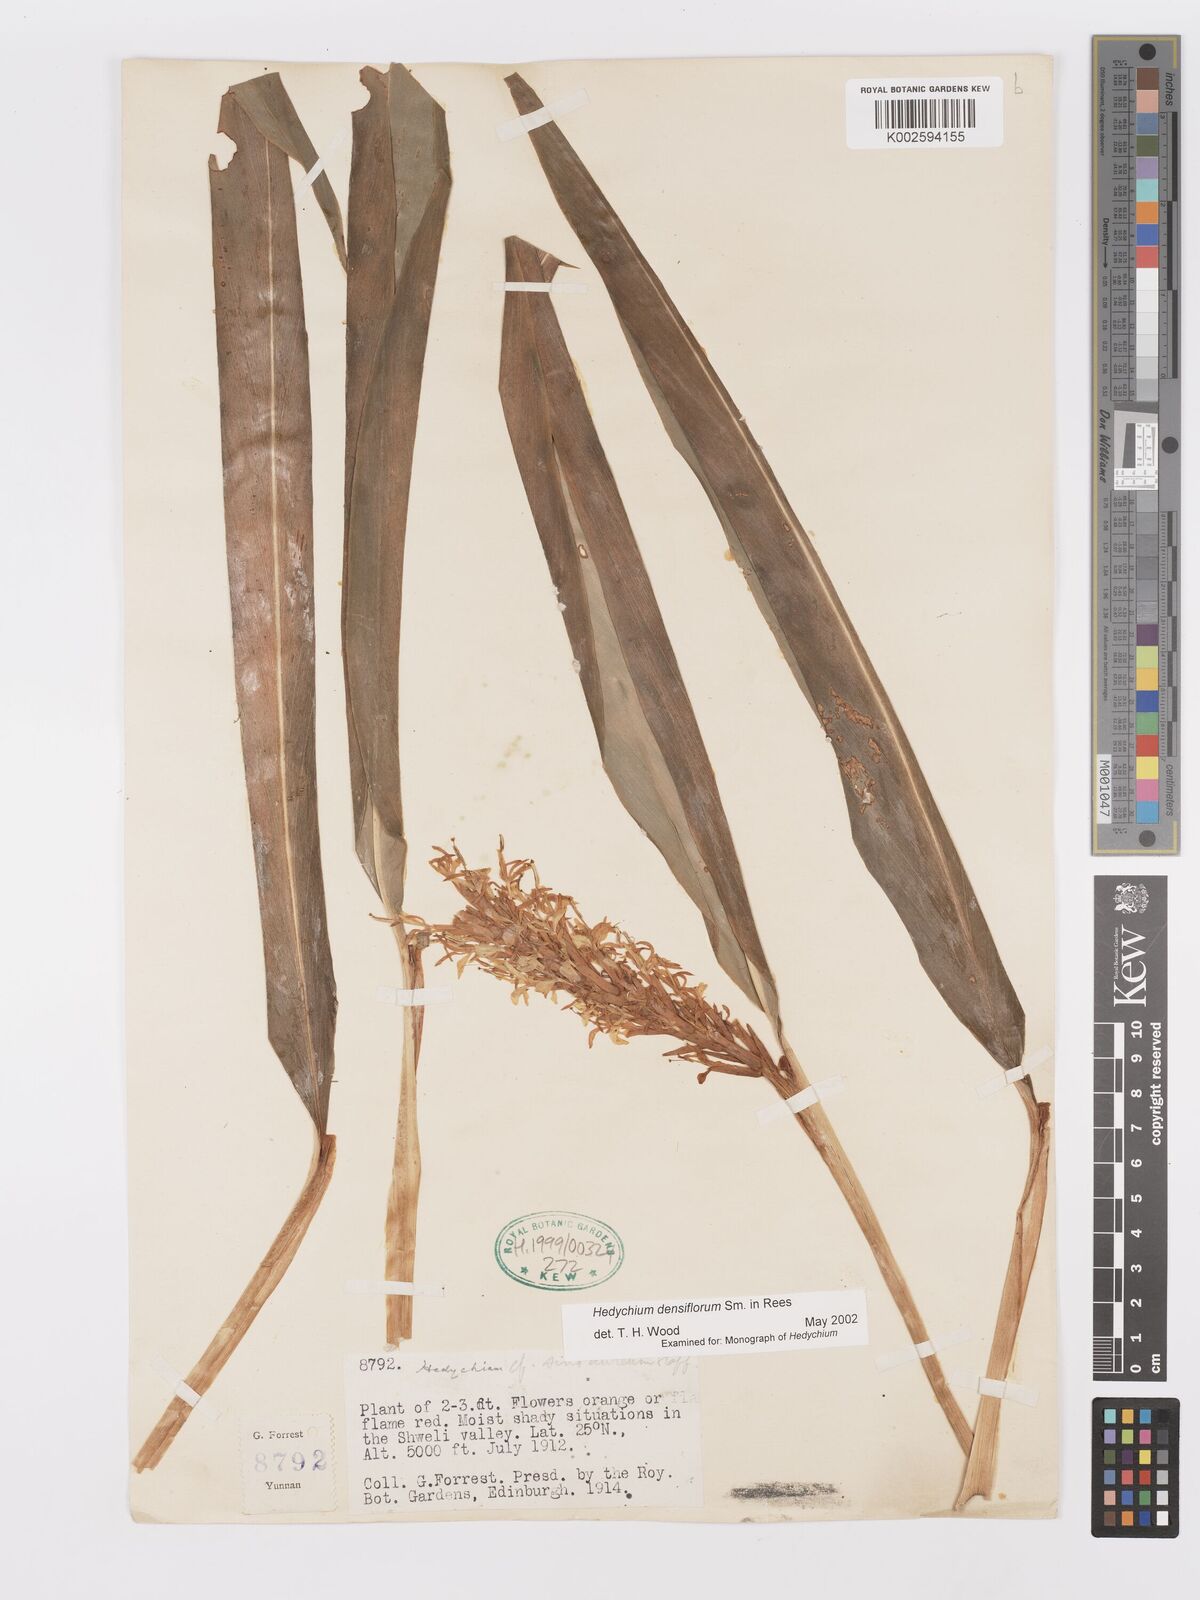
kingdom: Plantae
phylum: Tracheophyta
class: Liliopsida
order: Zingiberales
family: Zingiberaceae
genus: Hedychium
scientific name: Hedychium densiflorum
